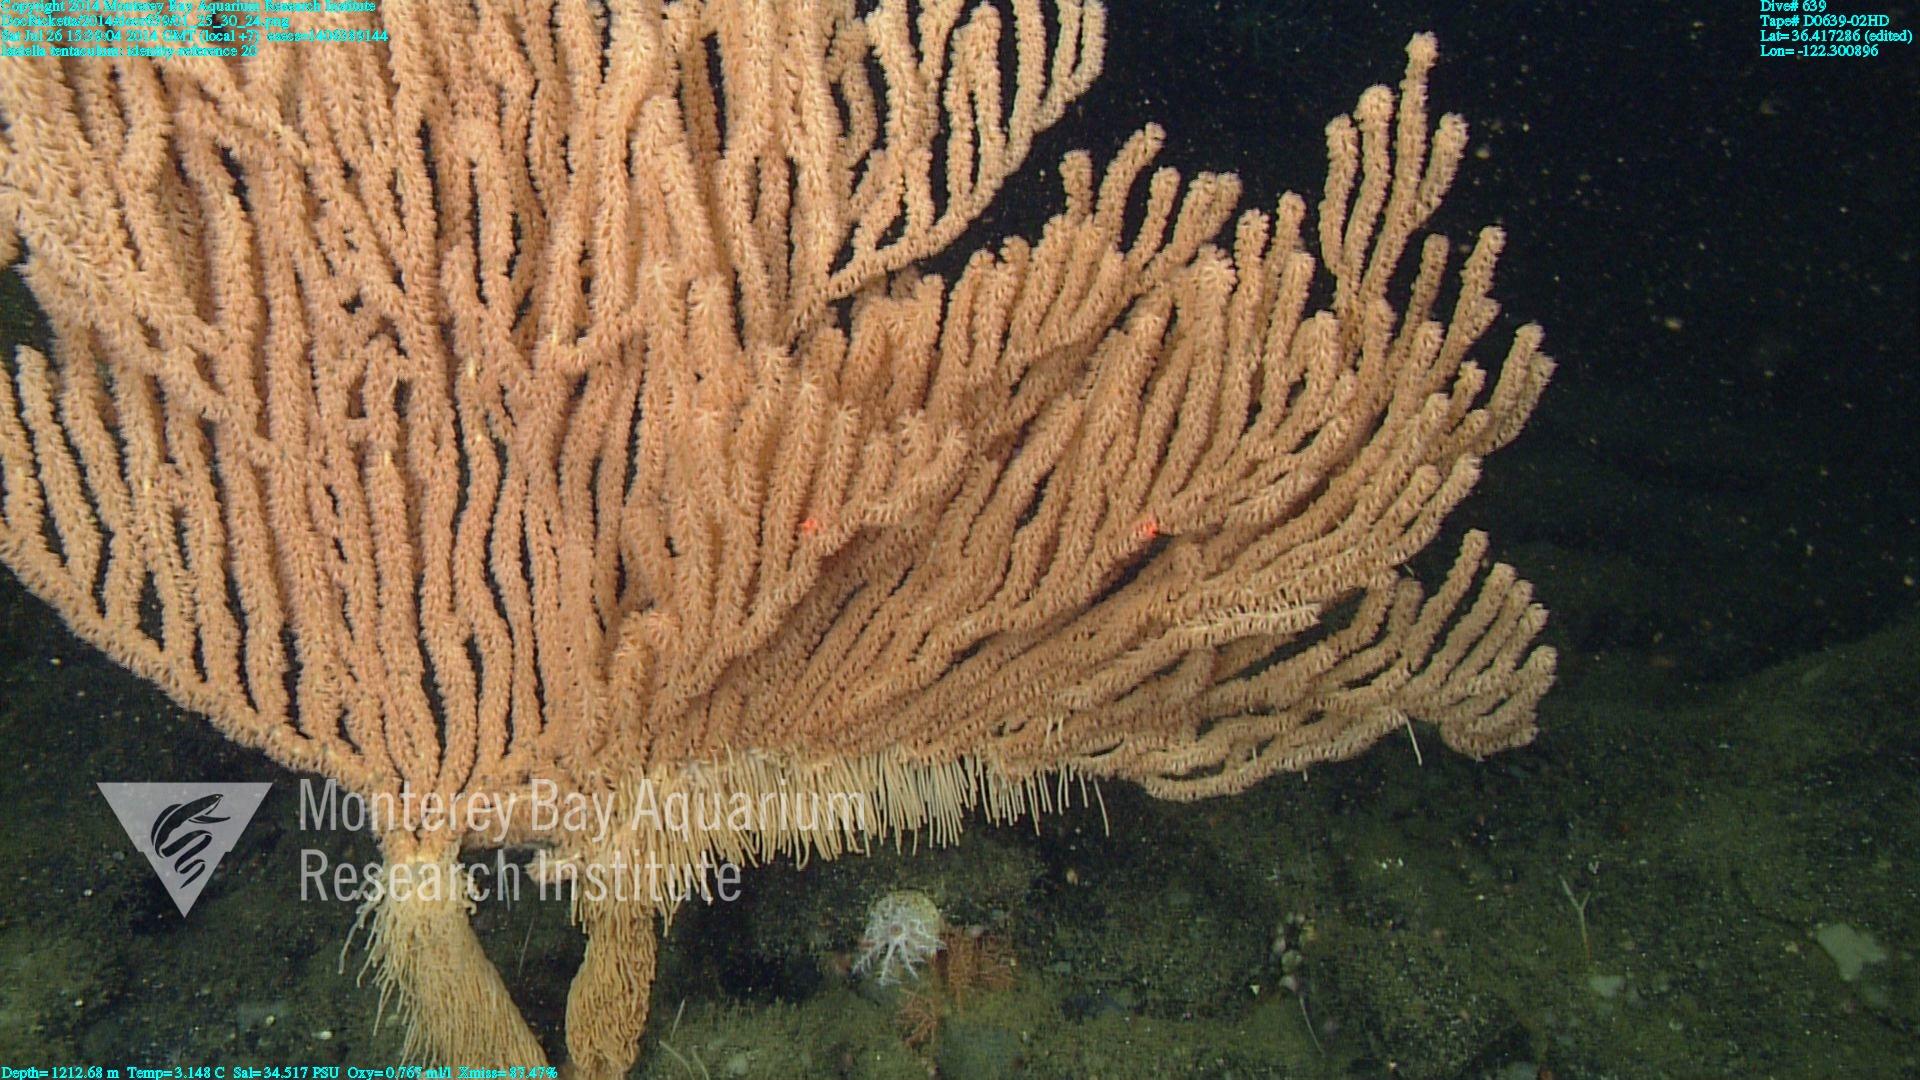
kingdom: Animalia
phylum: Cnidaria
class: Anthozoa
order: Scleralcyonacea
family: Keratoisididae
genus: Isidella
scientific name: Isidella tentaculum
